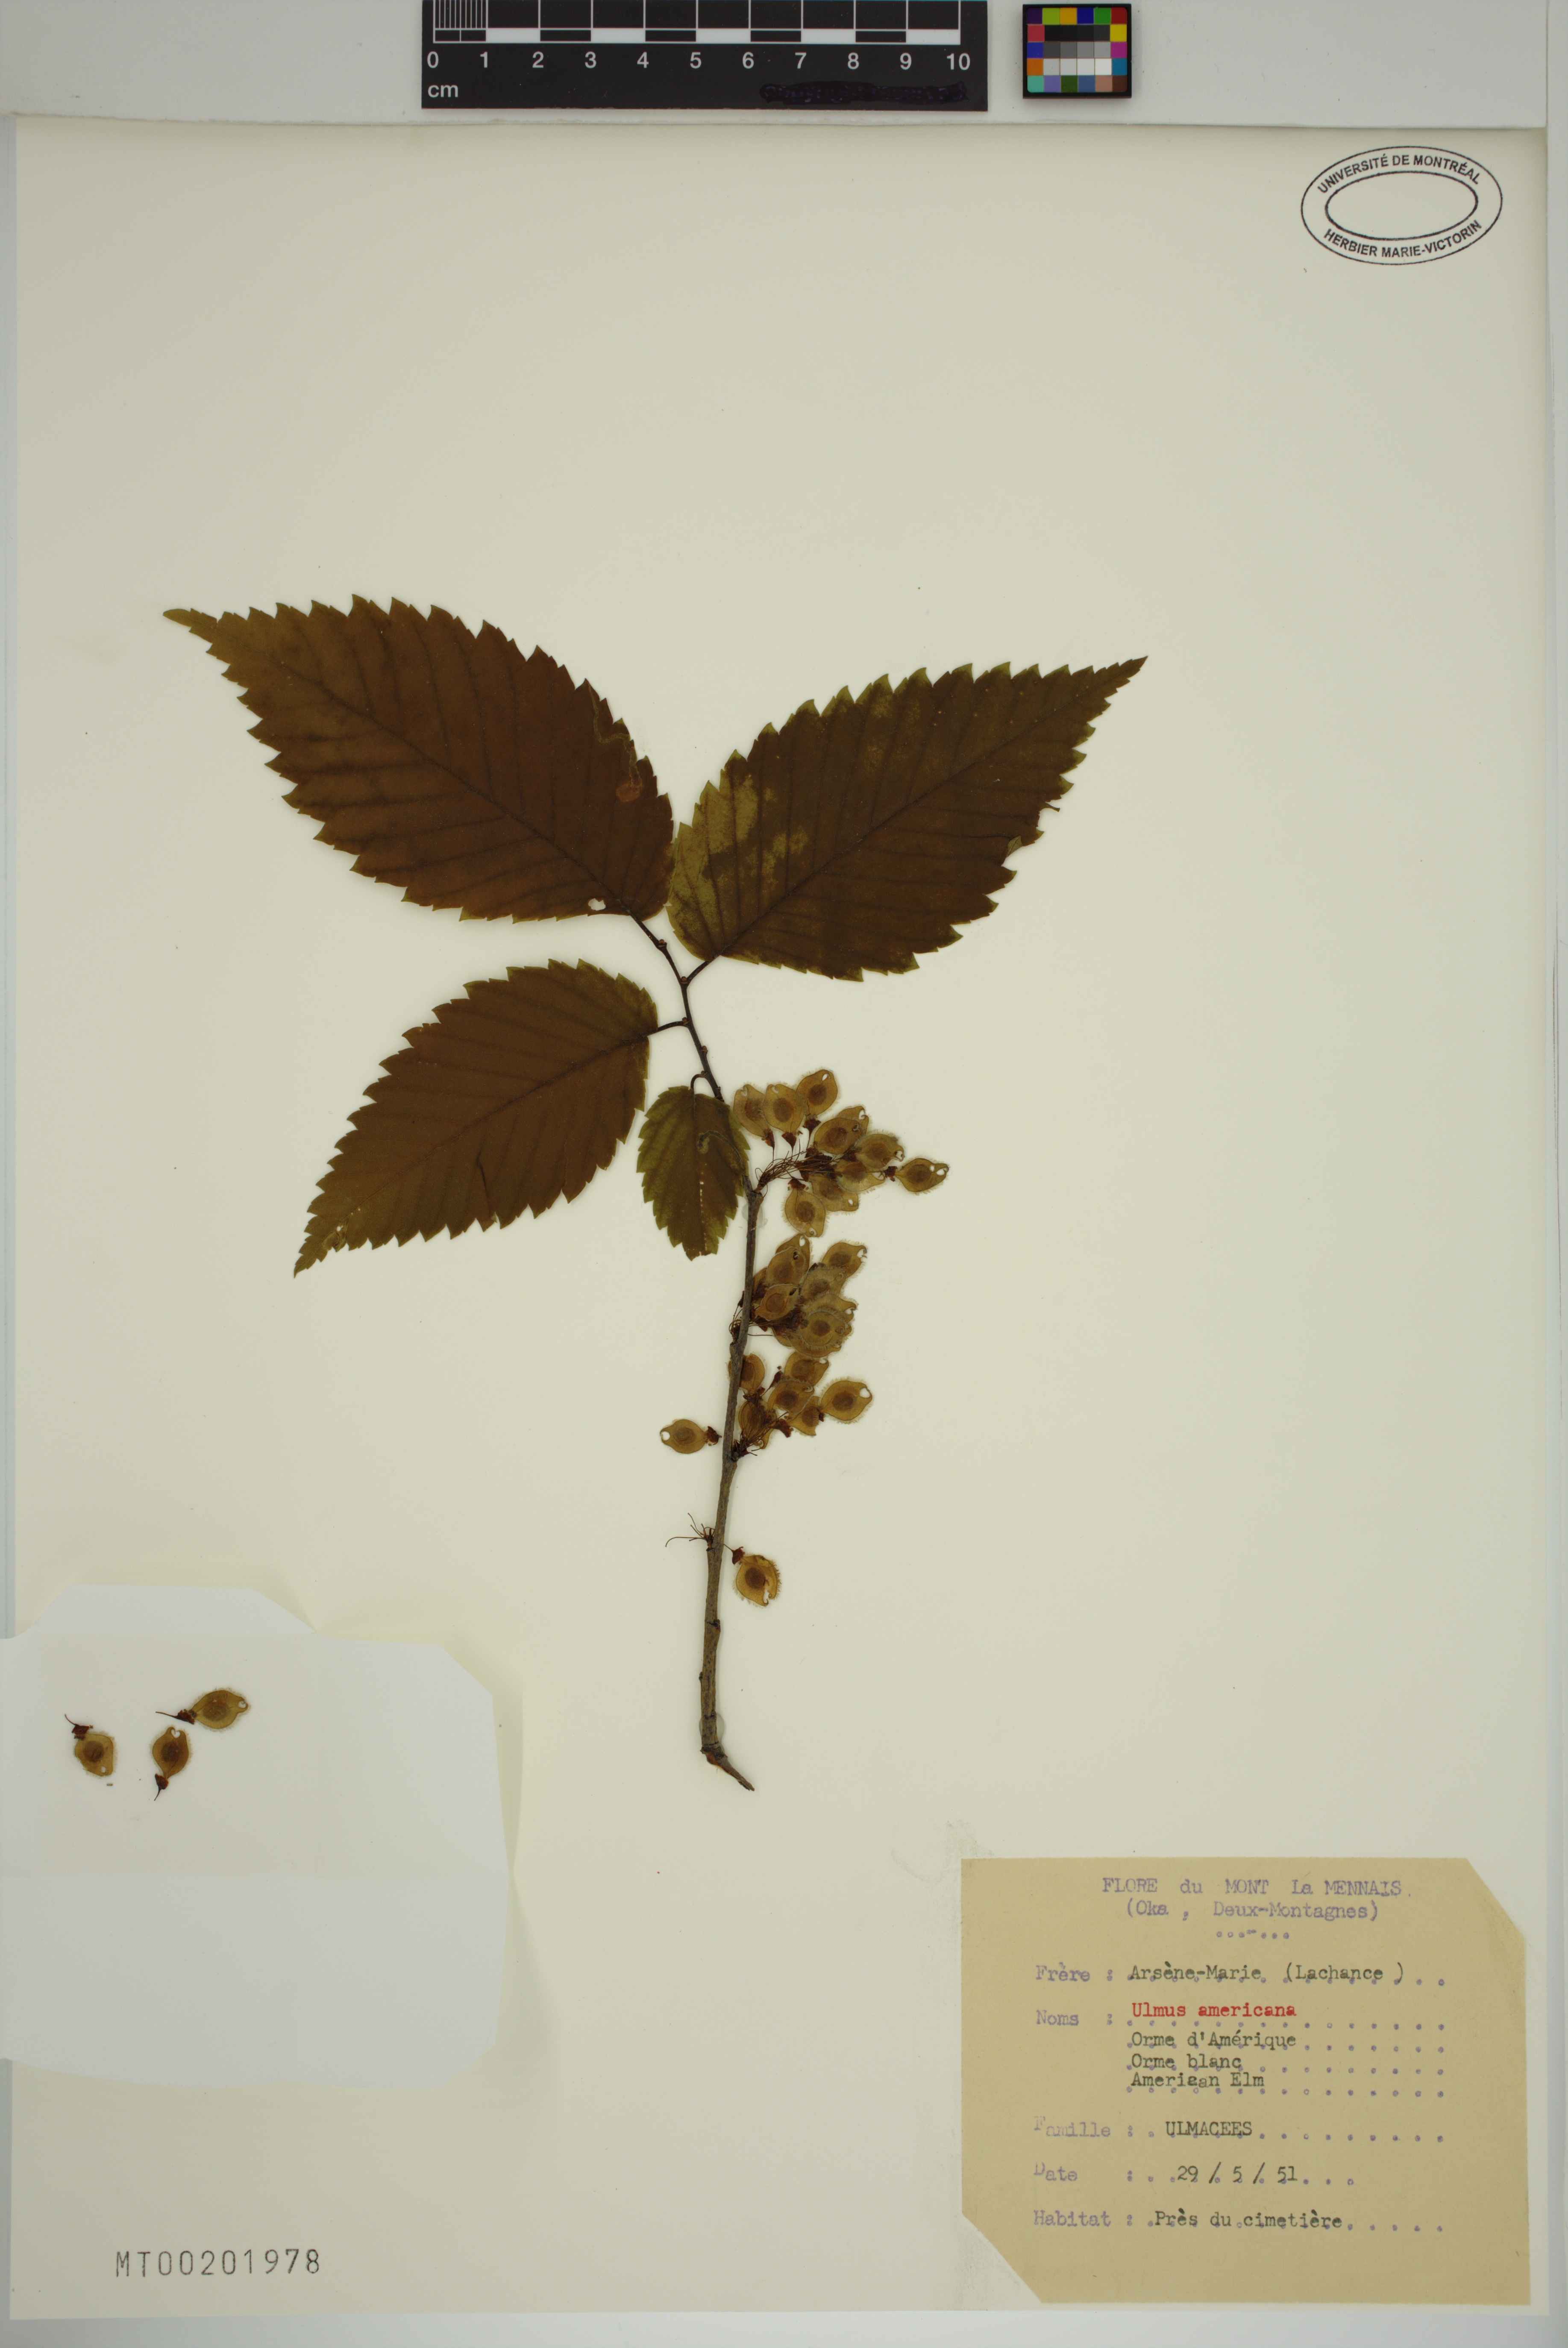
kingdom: Plantae
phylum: Tracheophyta
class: Magnoliopsida
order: Rosales
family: Ulmaceae
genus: Ulmus
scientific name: Ulmus americana
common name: American elm
